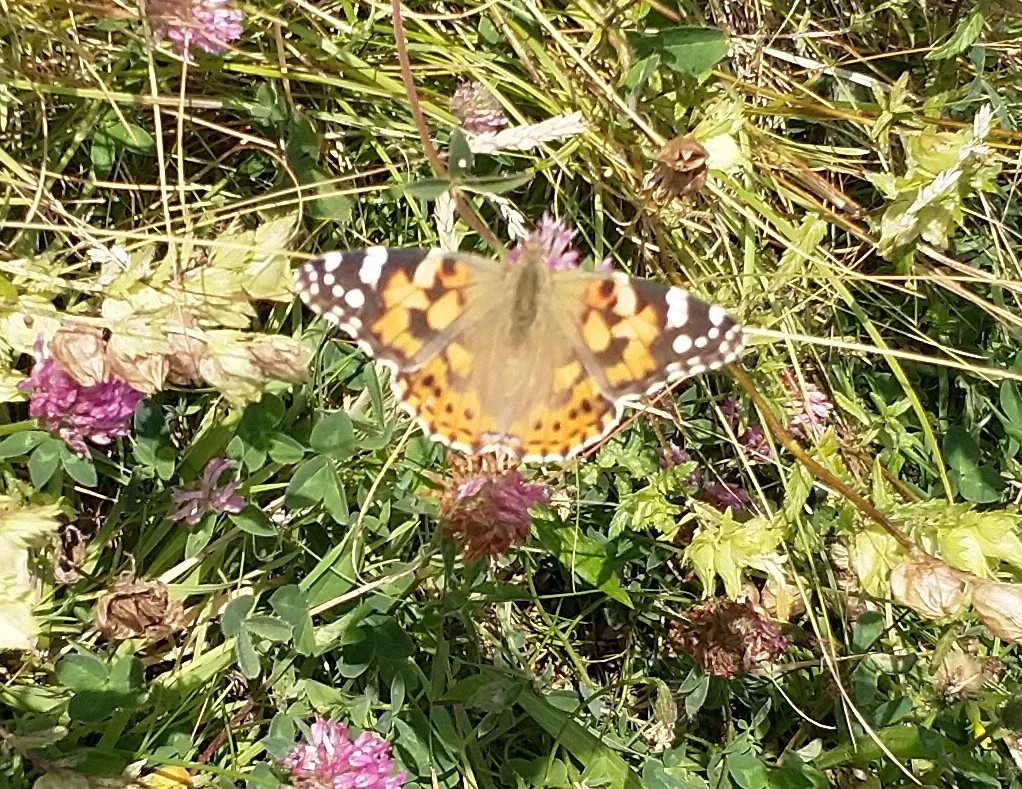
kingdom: Animalia
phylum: Arthropoda
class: Insecta
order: Lepidoptera
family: Nymphalidae
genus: Vanessa
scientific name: Vanessa cardui
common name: Tidselsommerfugl
